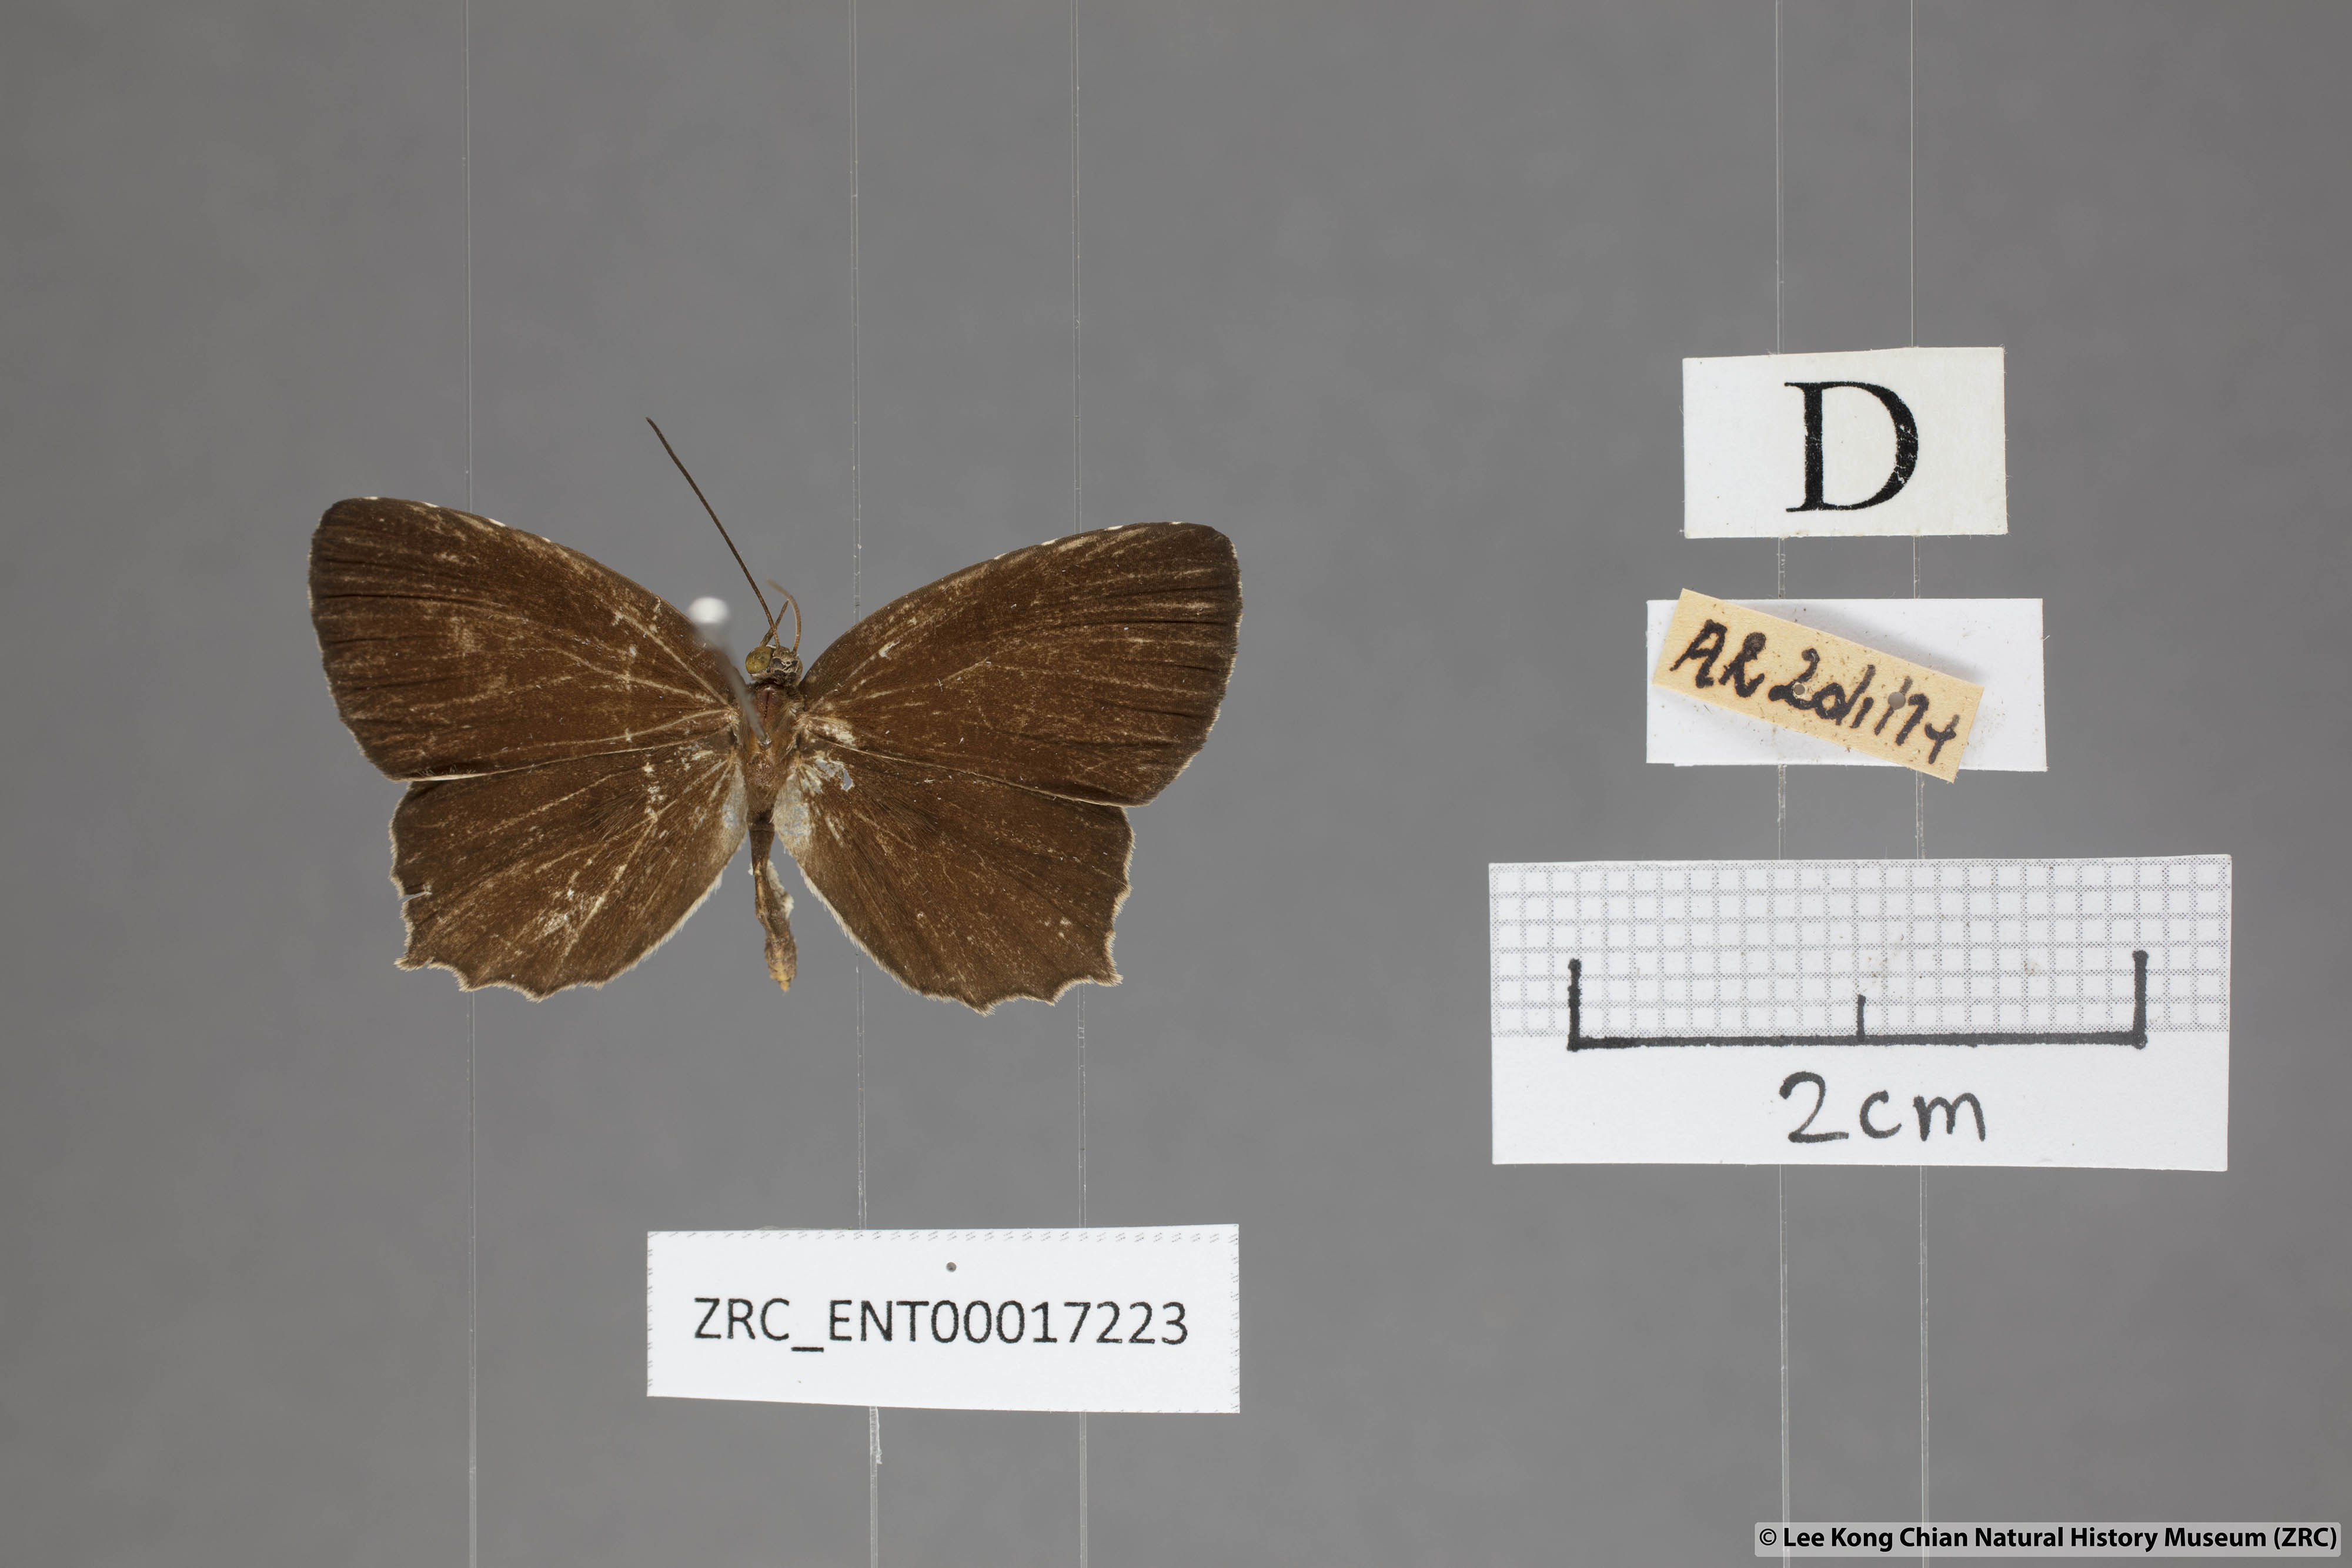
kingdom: Animalia
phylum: Arthropoda
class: Insecta
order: Lepidoptera
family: Lycaenidae
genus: Allotinus
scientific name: Allotinus fabius
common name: Angled darkie
